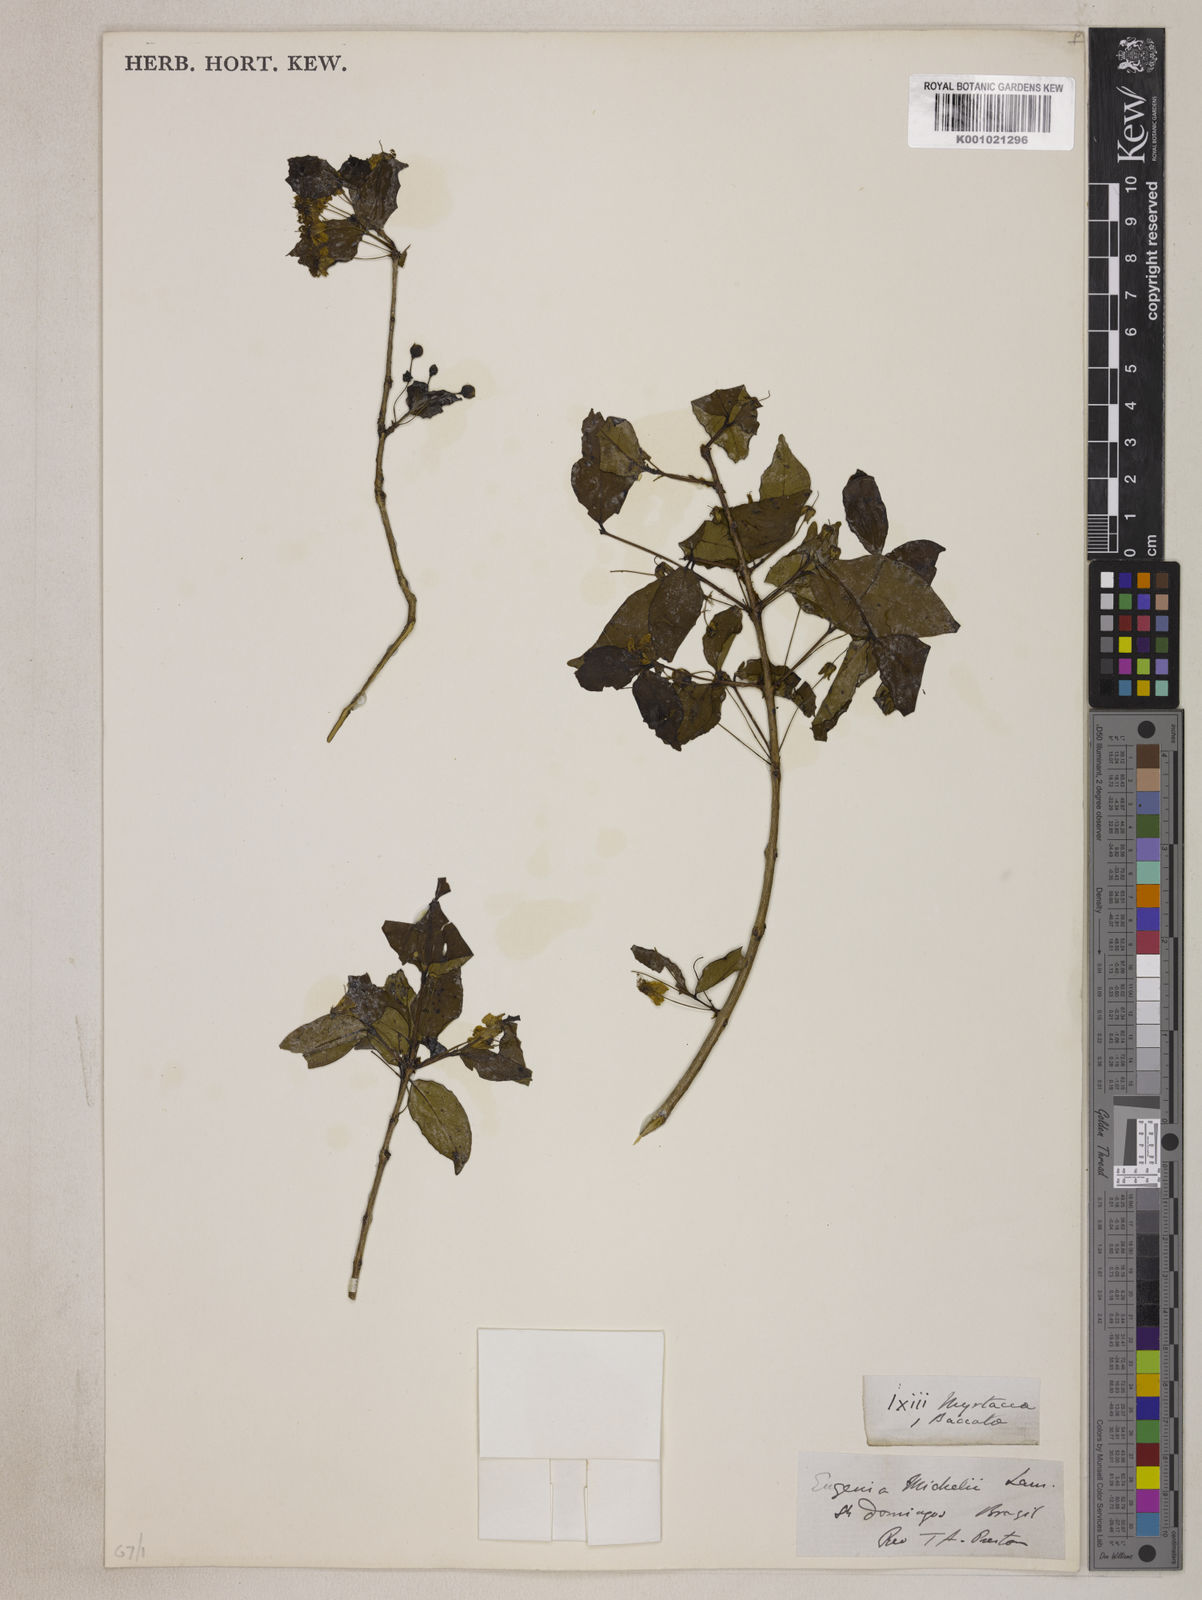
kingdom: Plantae
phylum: Tracheophyta
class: Magnoliopsida
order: Myrtales
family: Myrtaceae
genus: Eugenia
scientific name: Eugenia uniflora
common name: Surinam cherry
